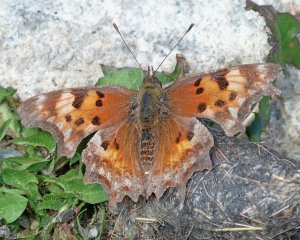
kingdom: Animalia
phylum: Arthropoda
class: Insecta
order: Lepidoptera
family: Nymphalidae
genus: Polygonia
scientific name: Polygonia gracilis
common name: Hoary Comma
